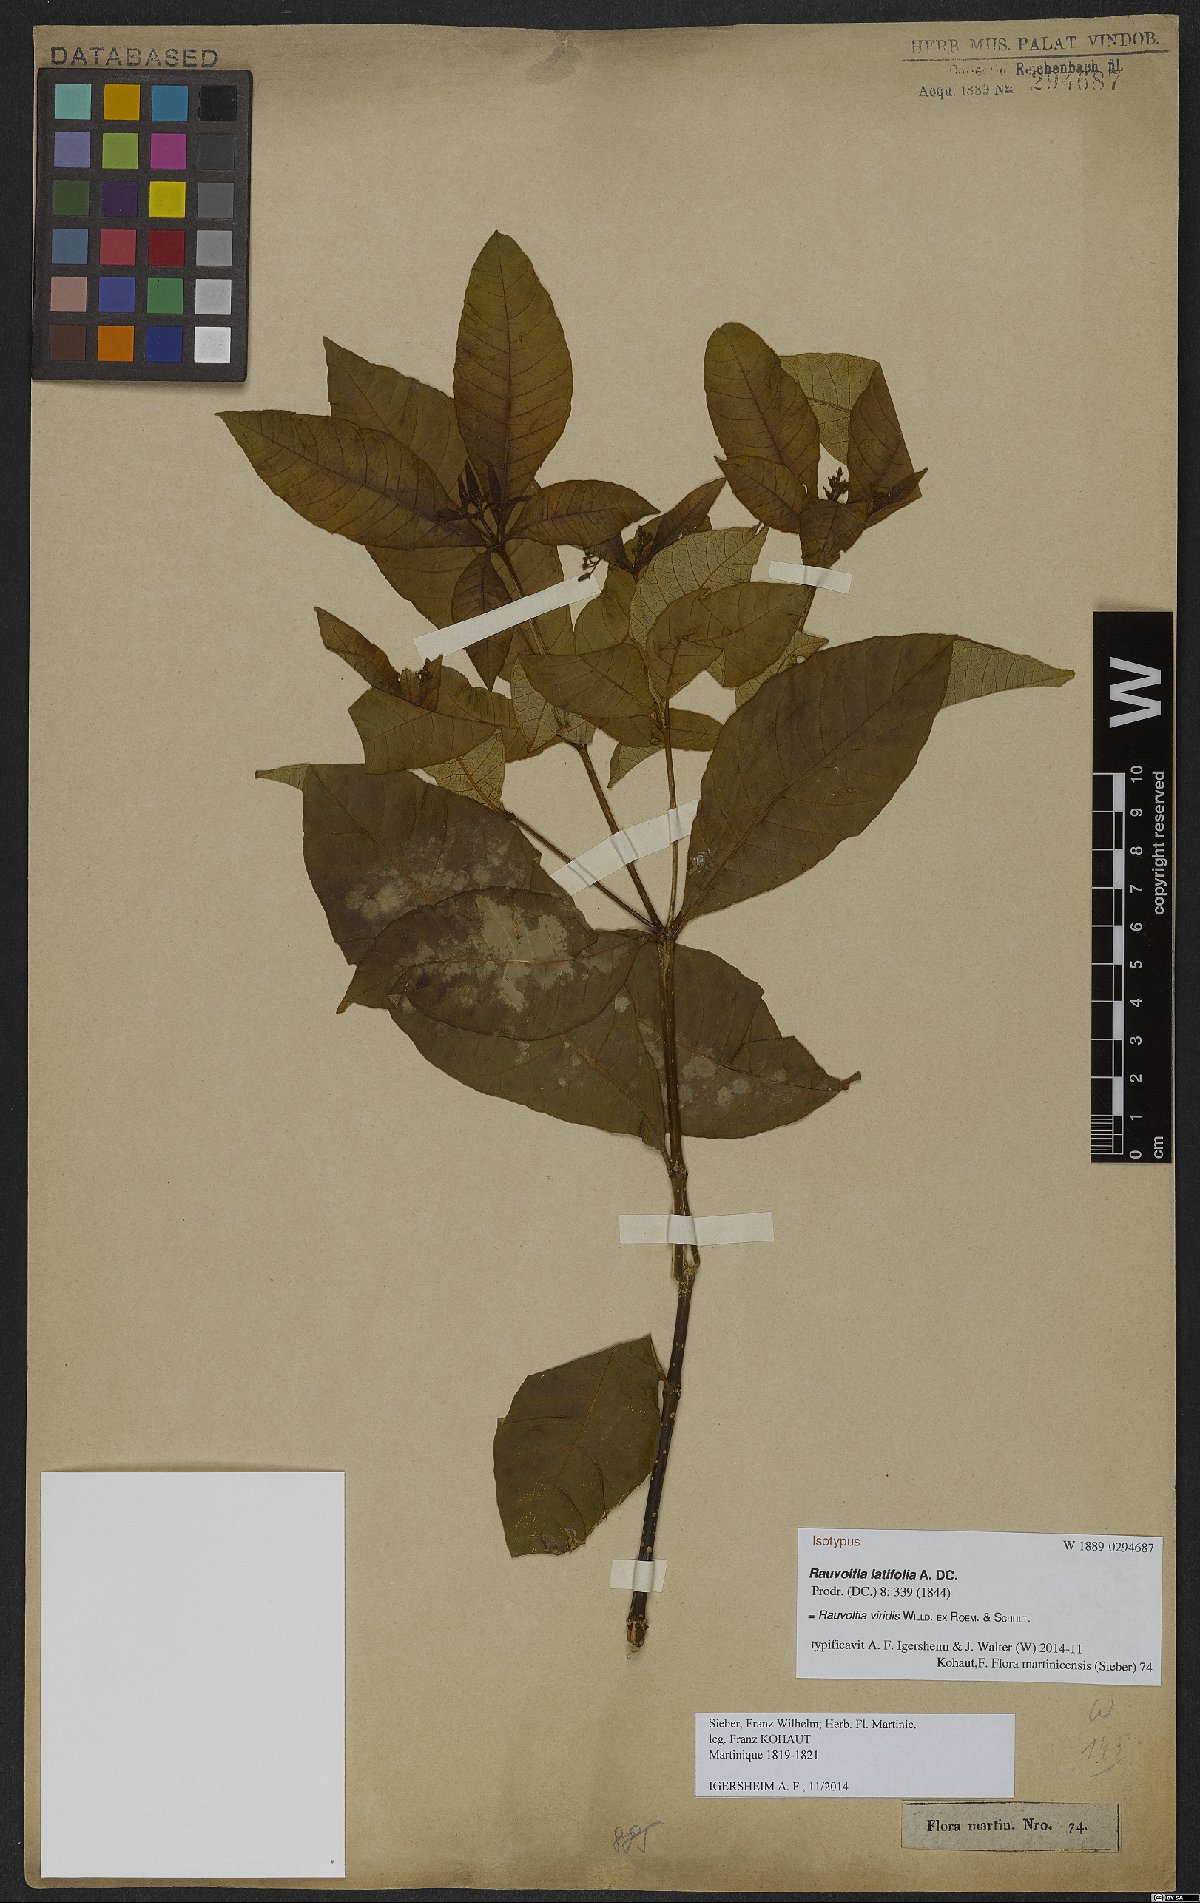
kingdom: Plantae
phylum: Tracheophyta
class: Magnoliopsida
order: Gentianales
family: Apocynaceae
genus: Rauvolfia
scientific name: Rauvolfia viridis
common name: Bellyache
